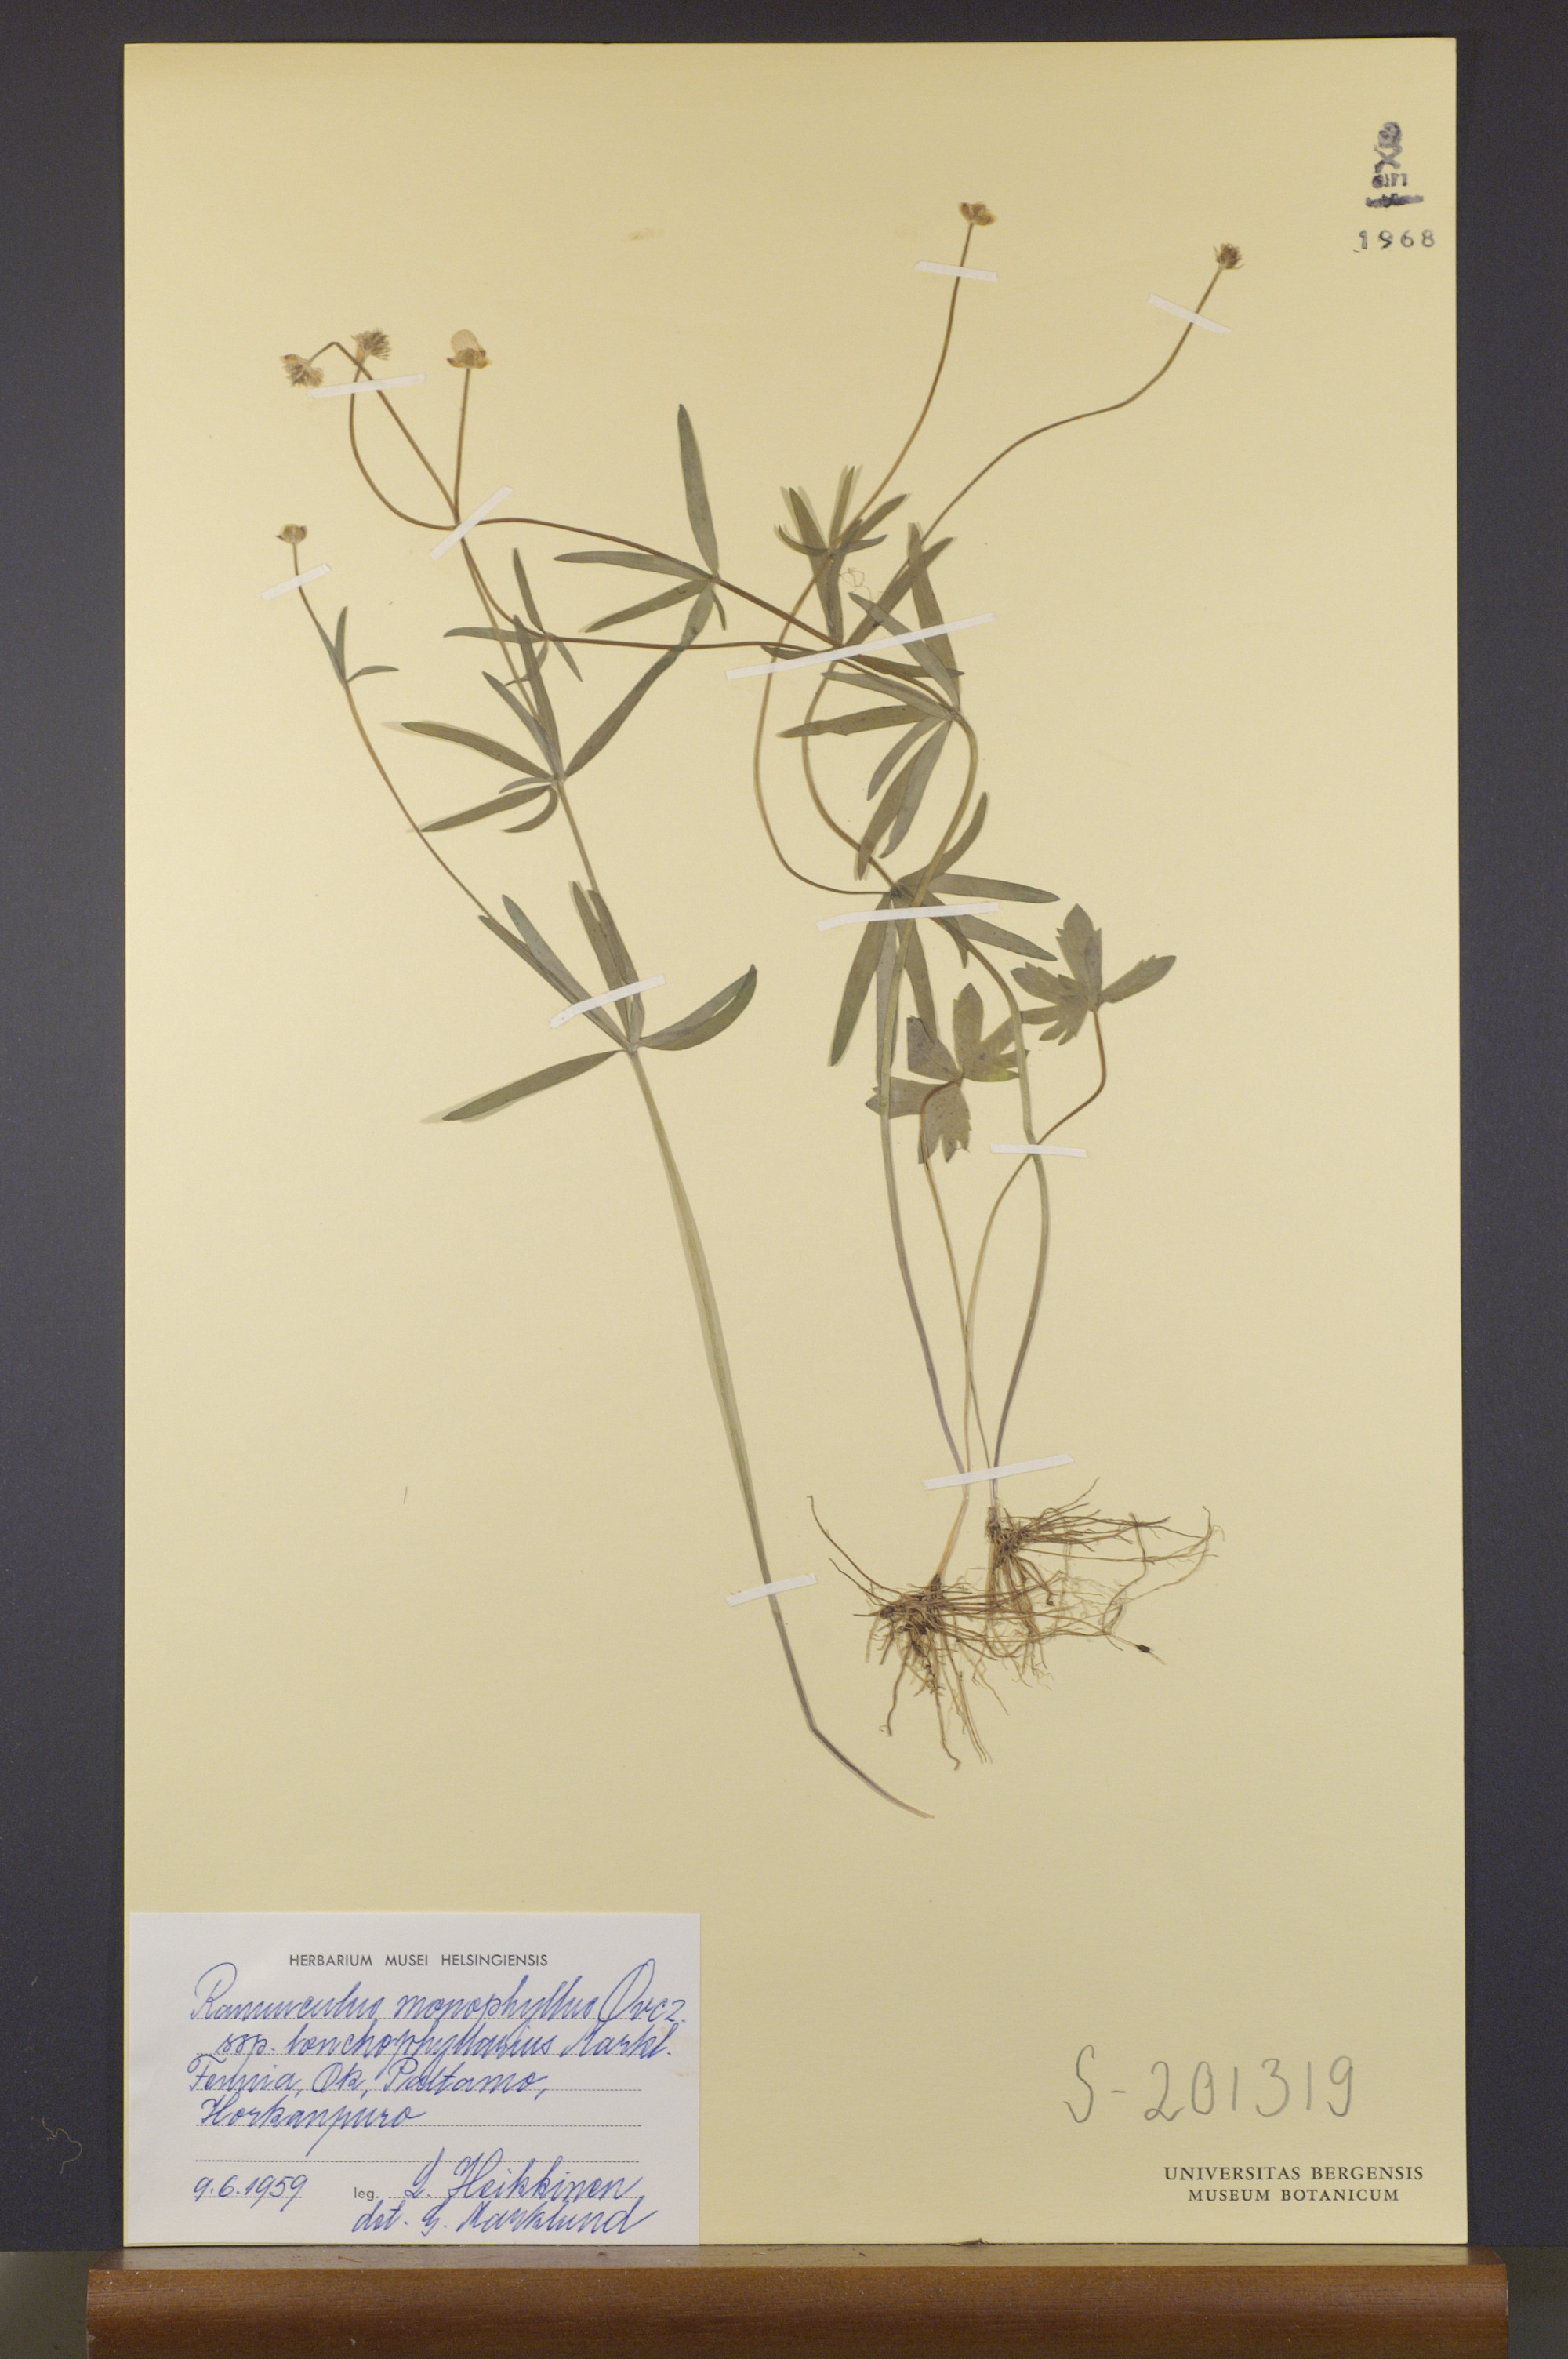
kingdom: Plantae
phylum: Tracheophyta
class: Magnoliopsida
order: Ranunculales
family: Ranunculaceae
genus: Ranunculus
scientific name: Ranunculus lonchophyllarius
